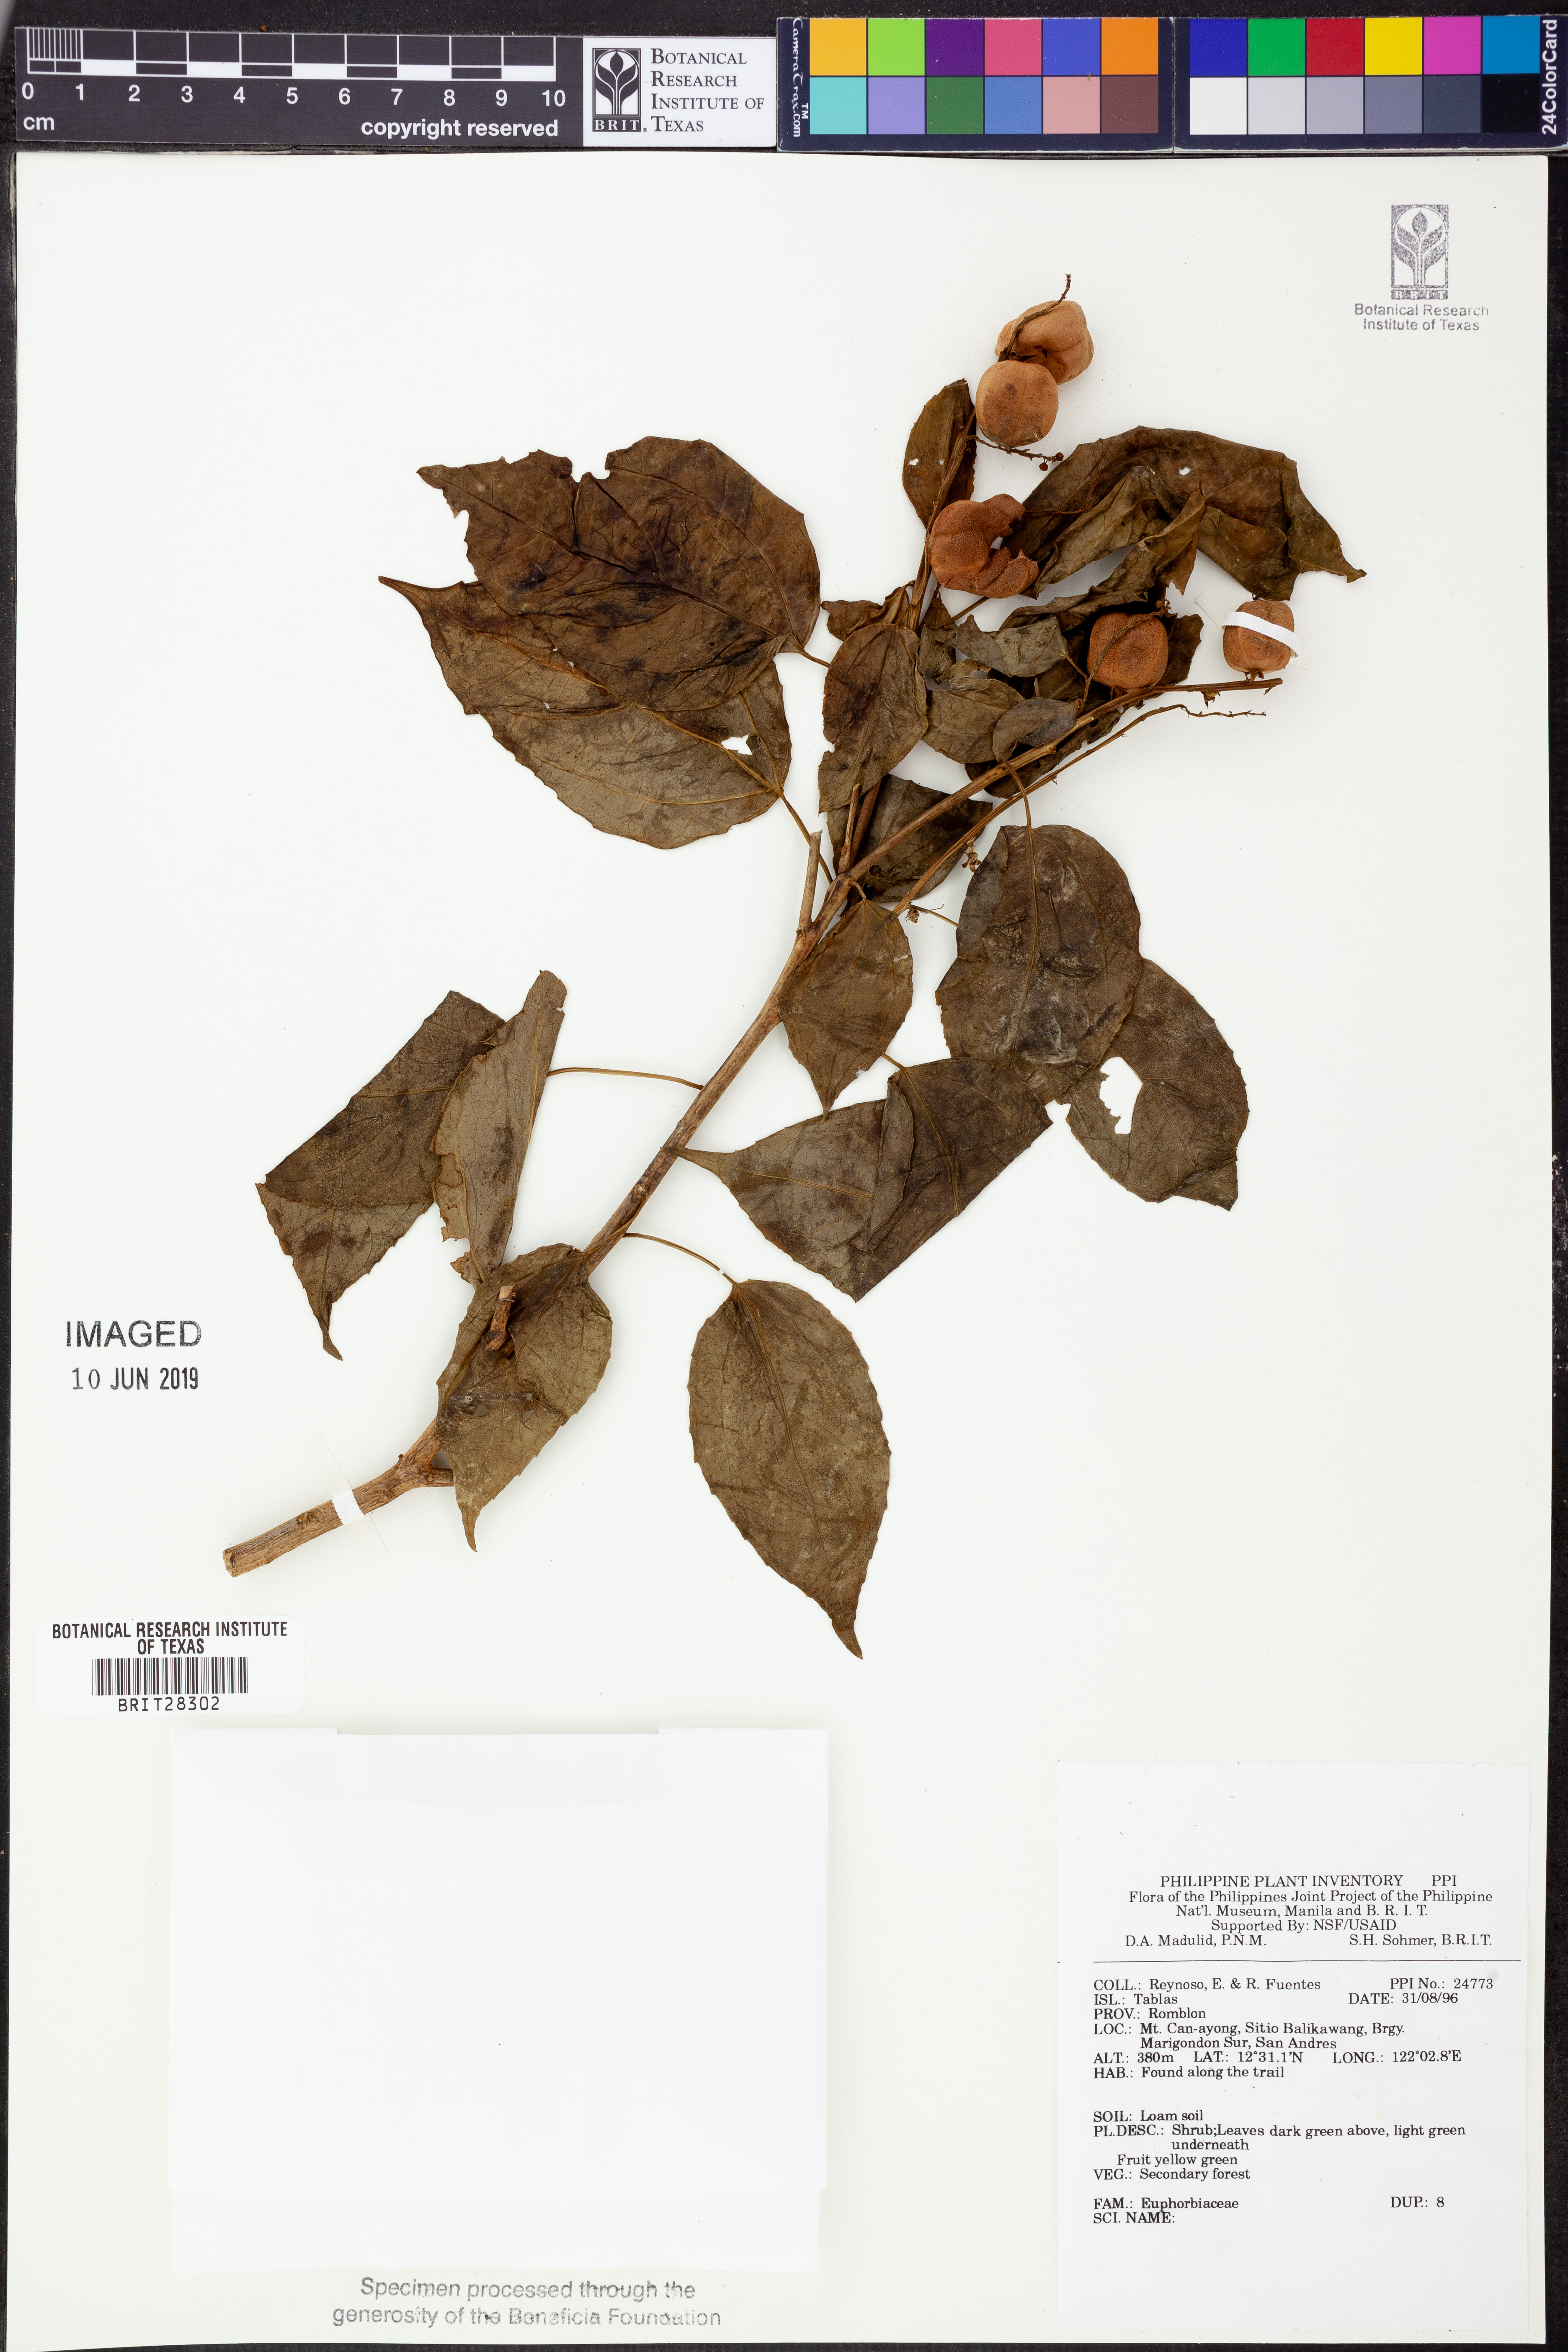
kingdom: Plantae
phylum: Tracheophyta
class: Magnoliopsida
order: Malpighiales
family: Euphorbiaceae
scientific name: Euphorbiaceae
